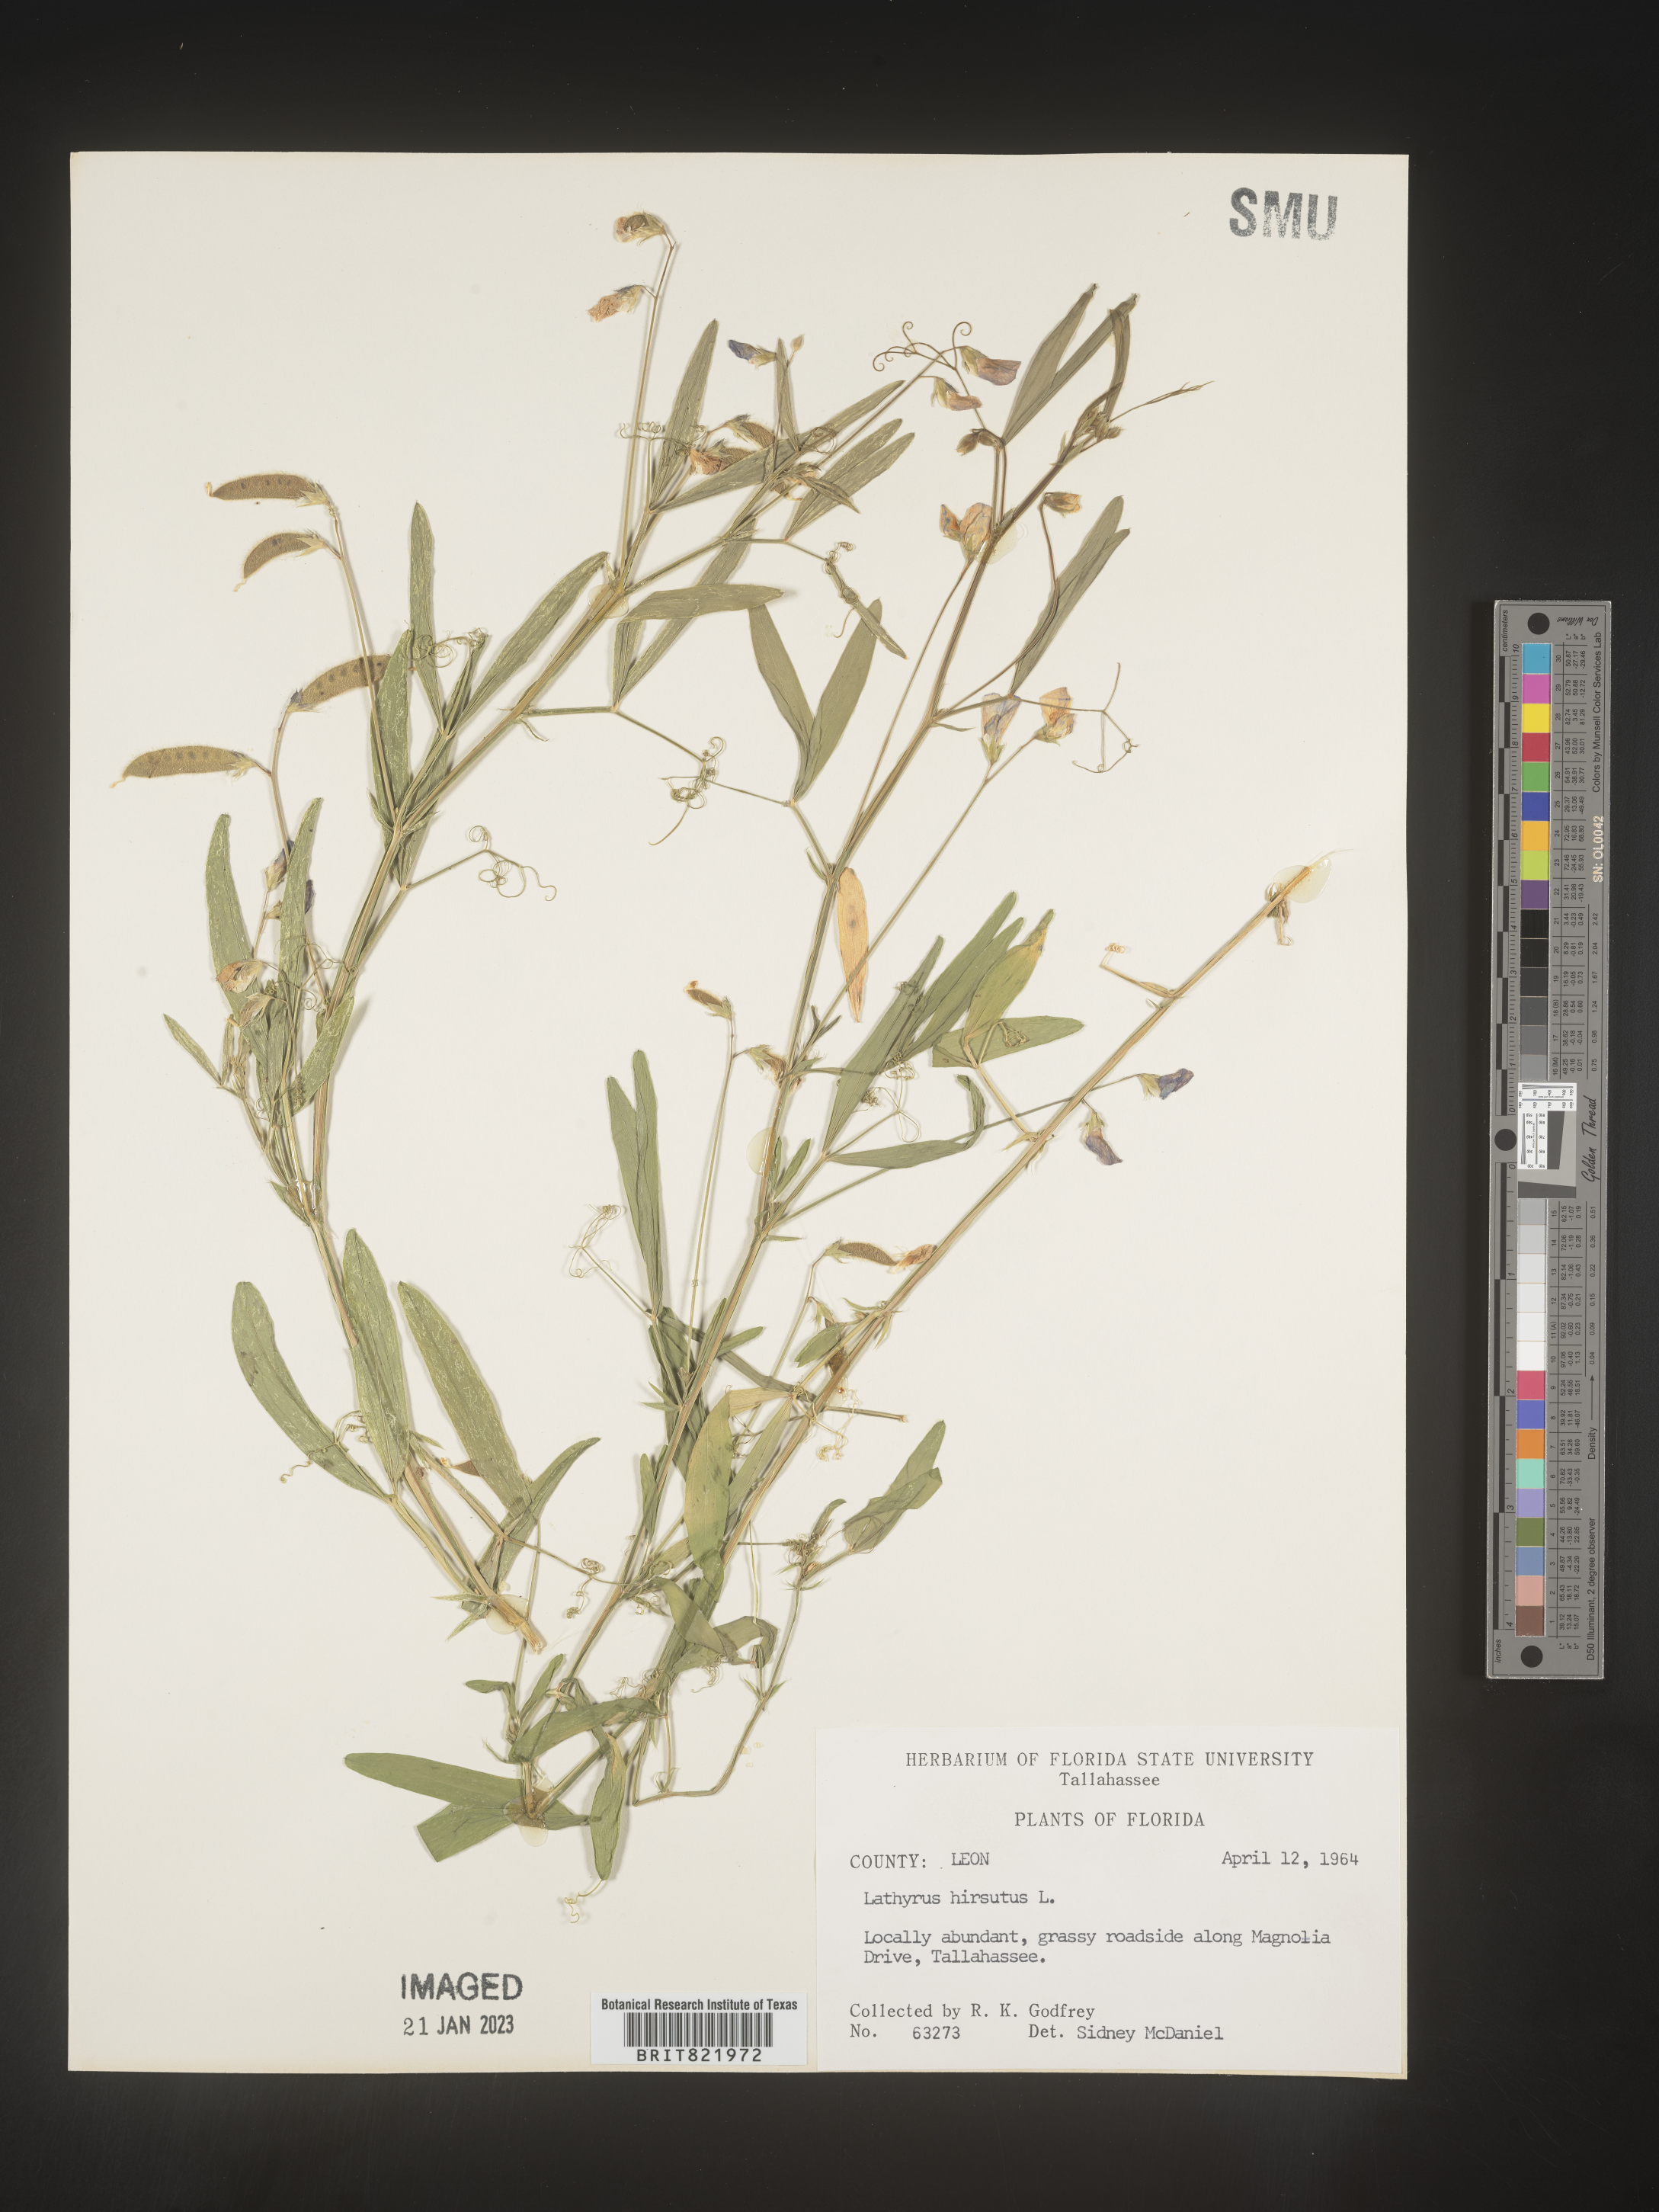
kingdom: Plantae
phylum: Tracheophyta
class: Magnoliopsida
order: Fabales
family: Fabaceae
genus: Lathyrus
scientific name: Lathyrus hirsutus
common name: Hairy vetchling
